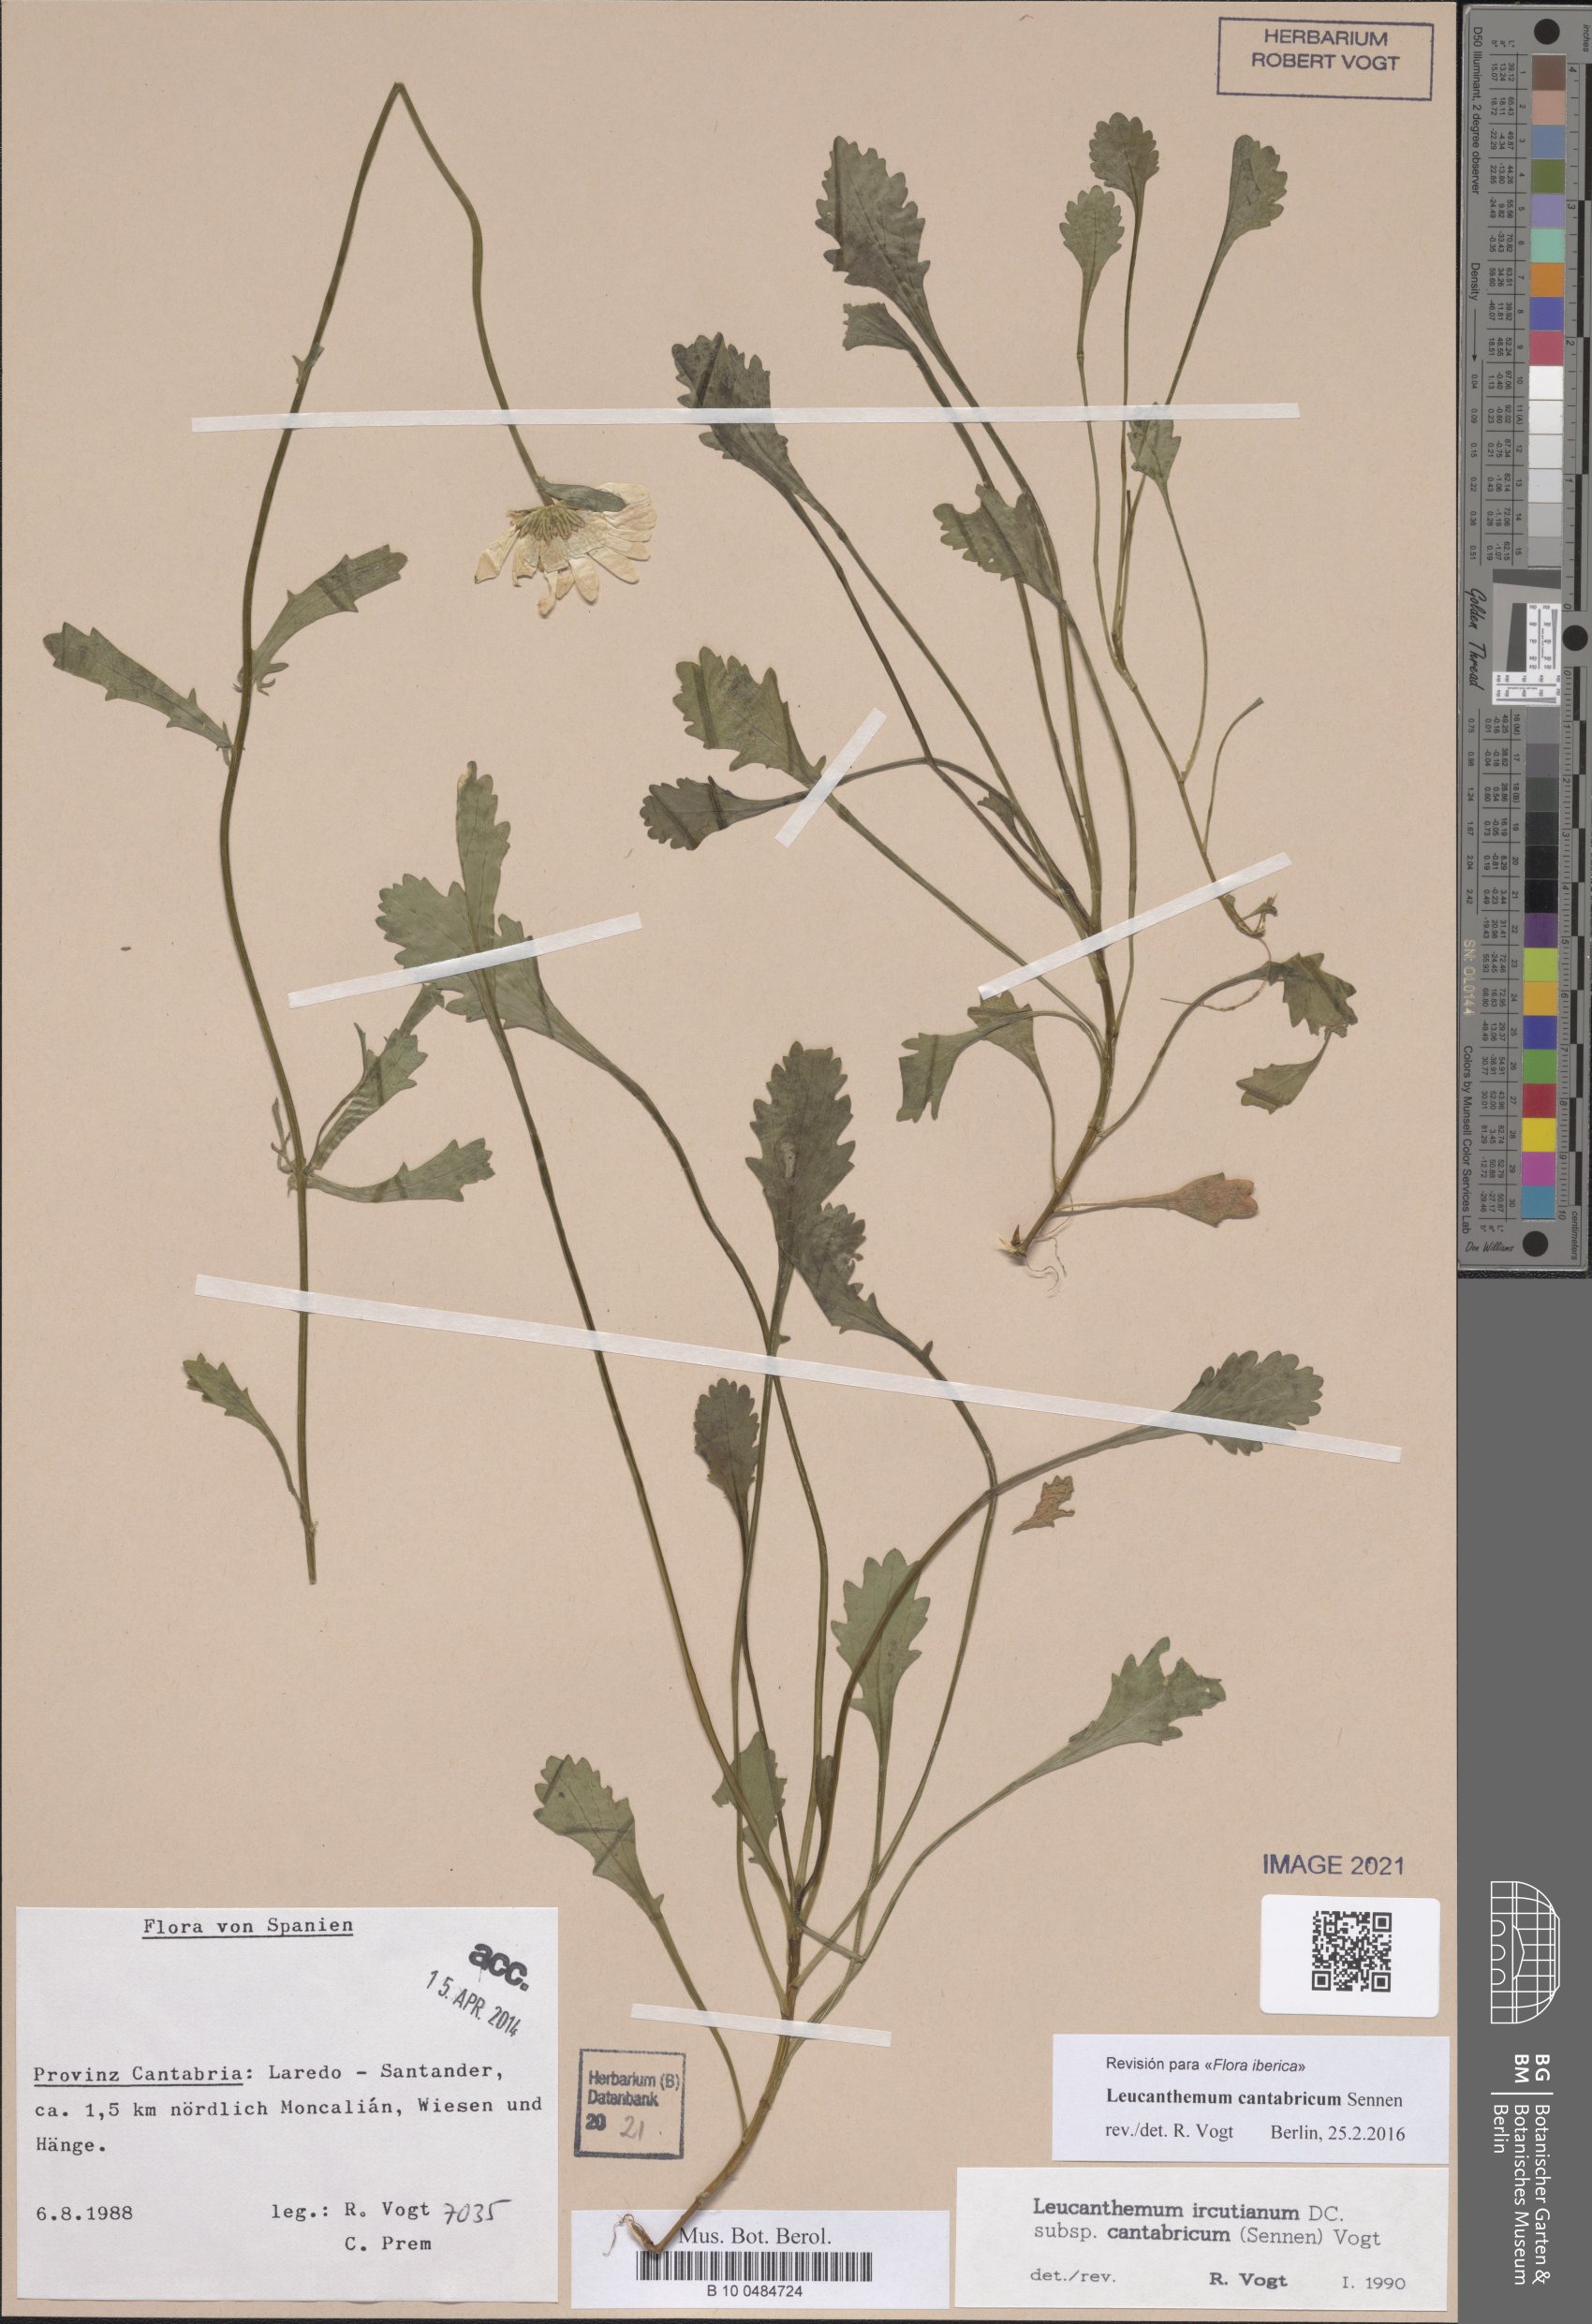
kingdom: Plantae
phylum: Tracheophyta
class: Magnoliopsida
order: Asterales
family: Asteraceae
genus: Leucanthemum
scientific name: Leucanthemum cantabricum
